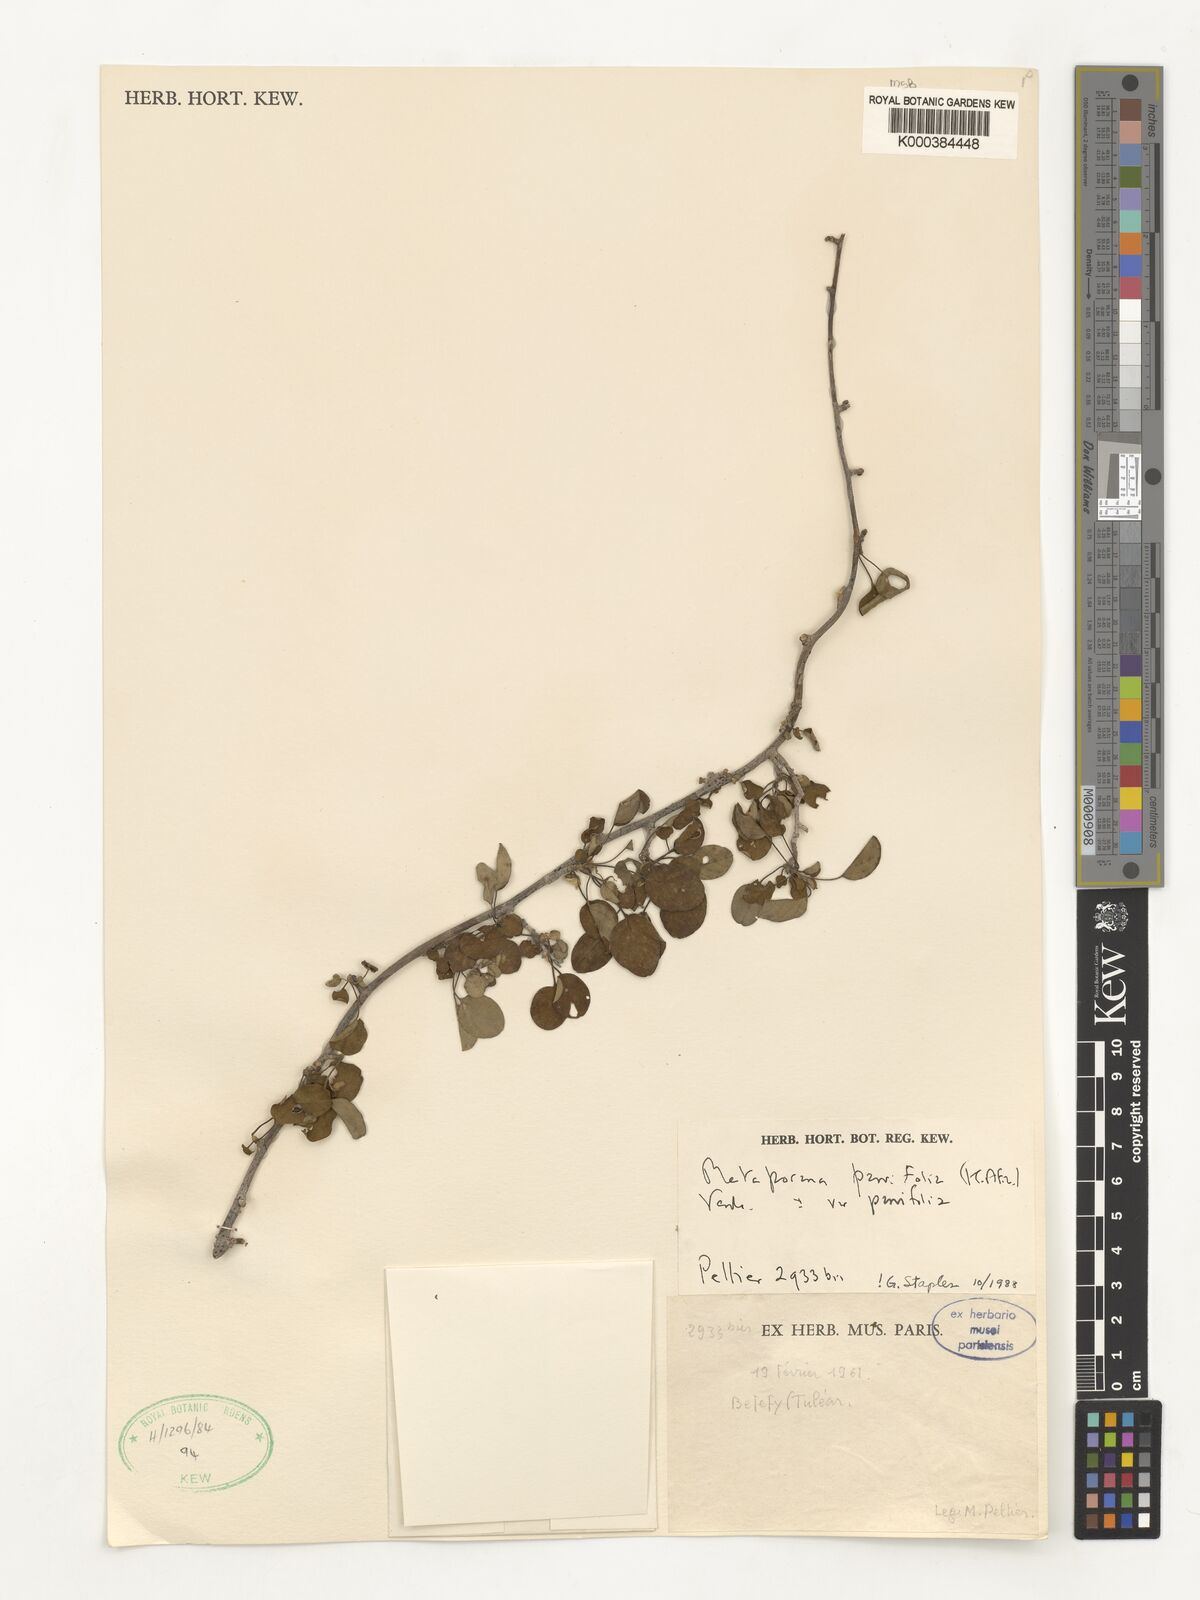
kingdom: Plantae
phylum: Tracheophyta
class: Magnoliopsida
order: Solanales
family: Convolvulaceae
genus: Metaporana
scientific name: Metaporana parvifolia
